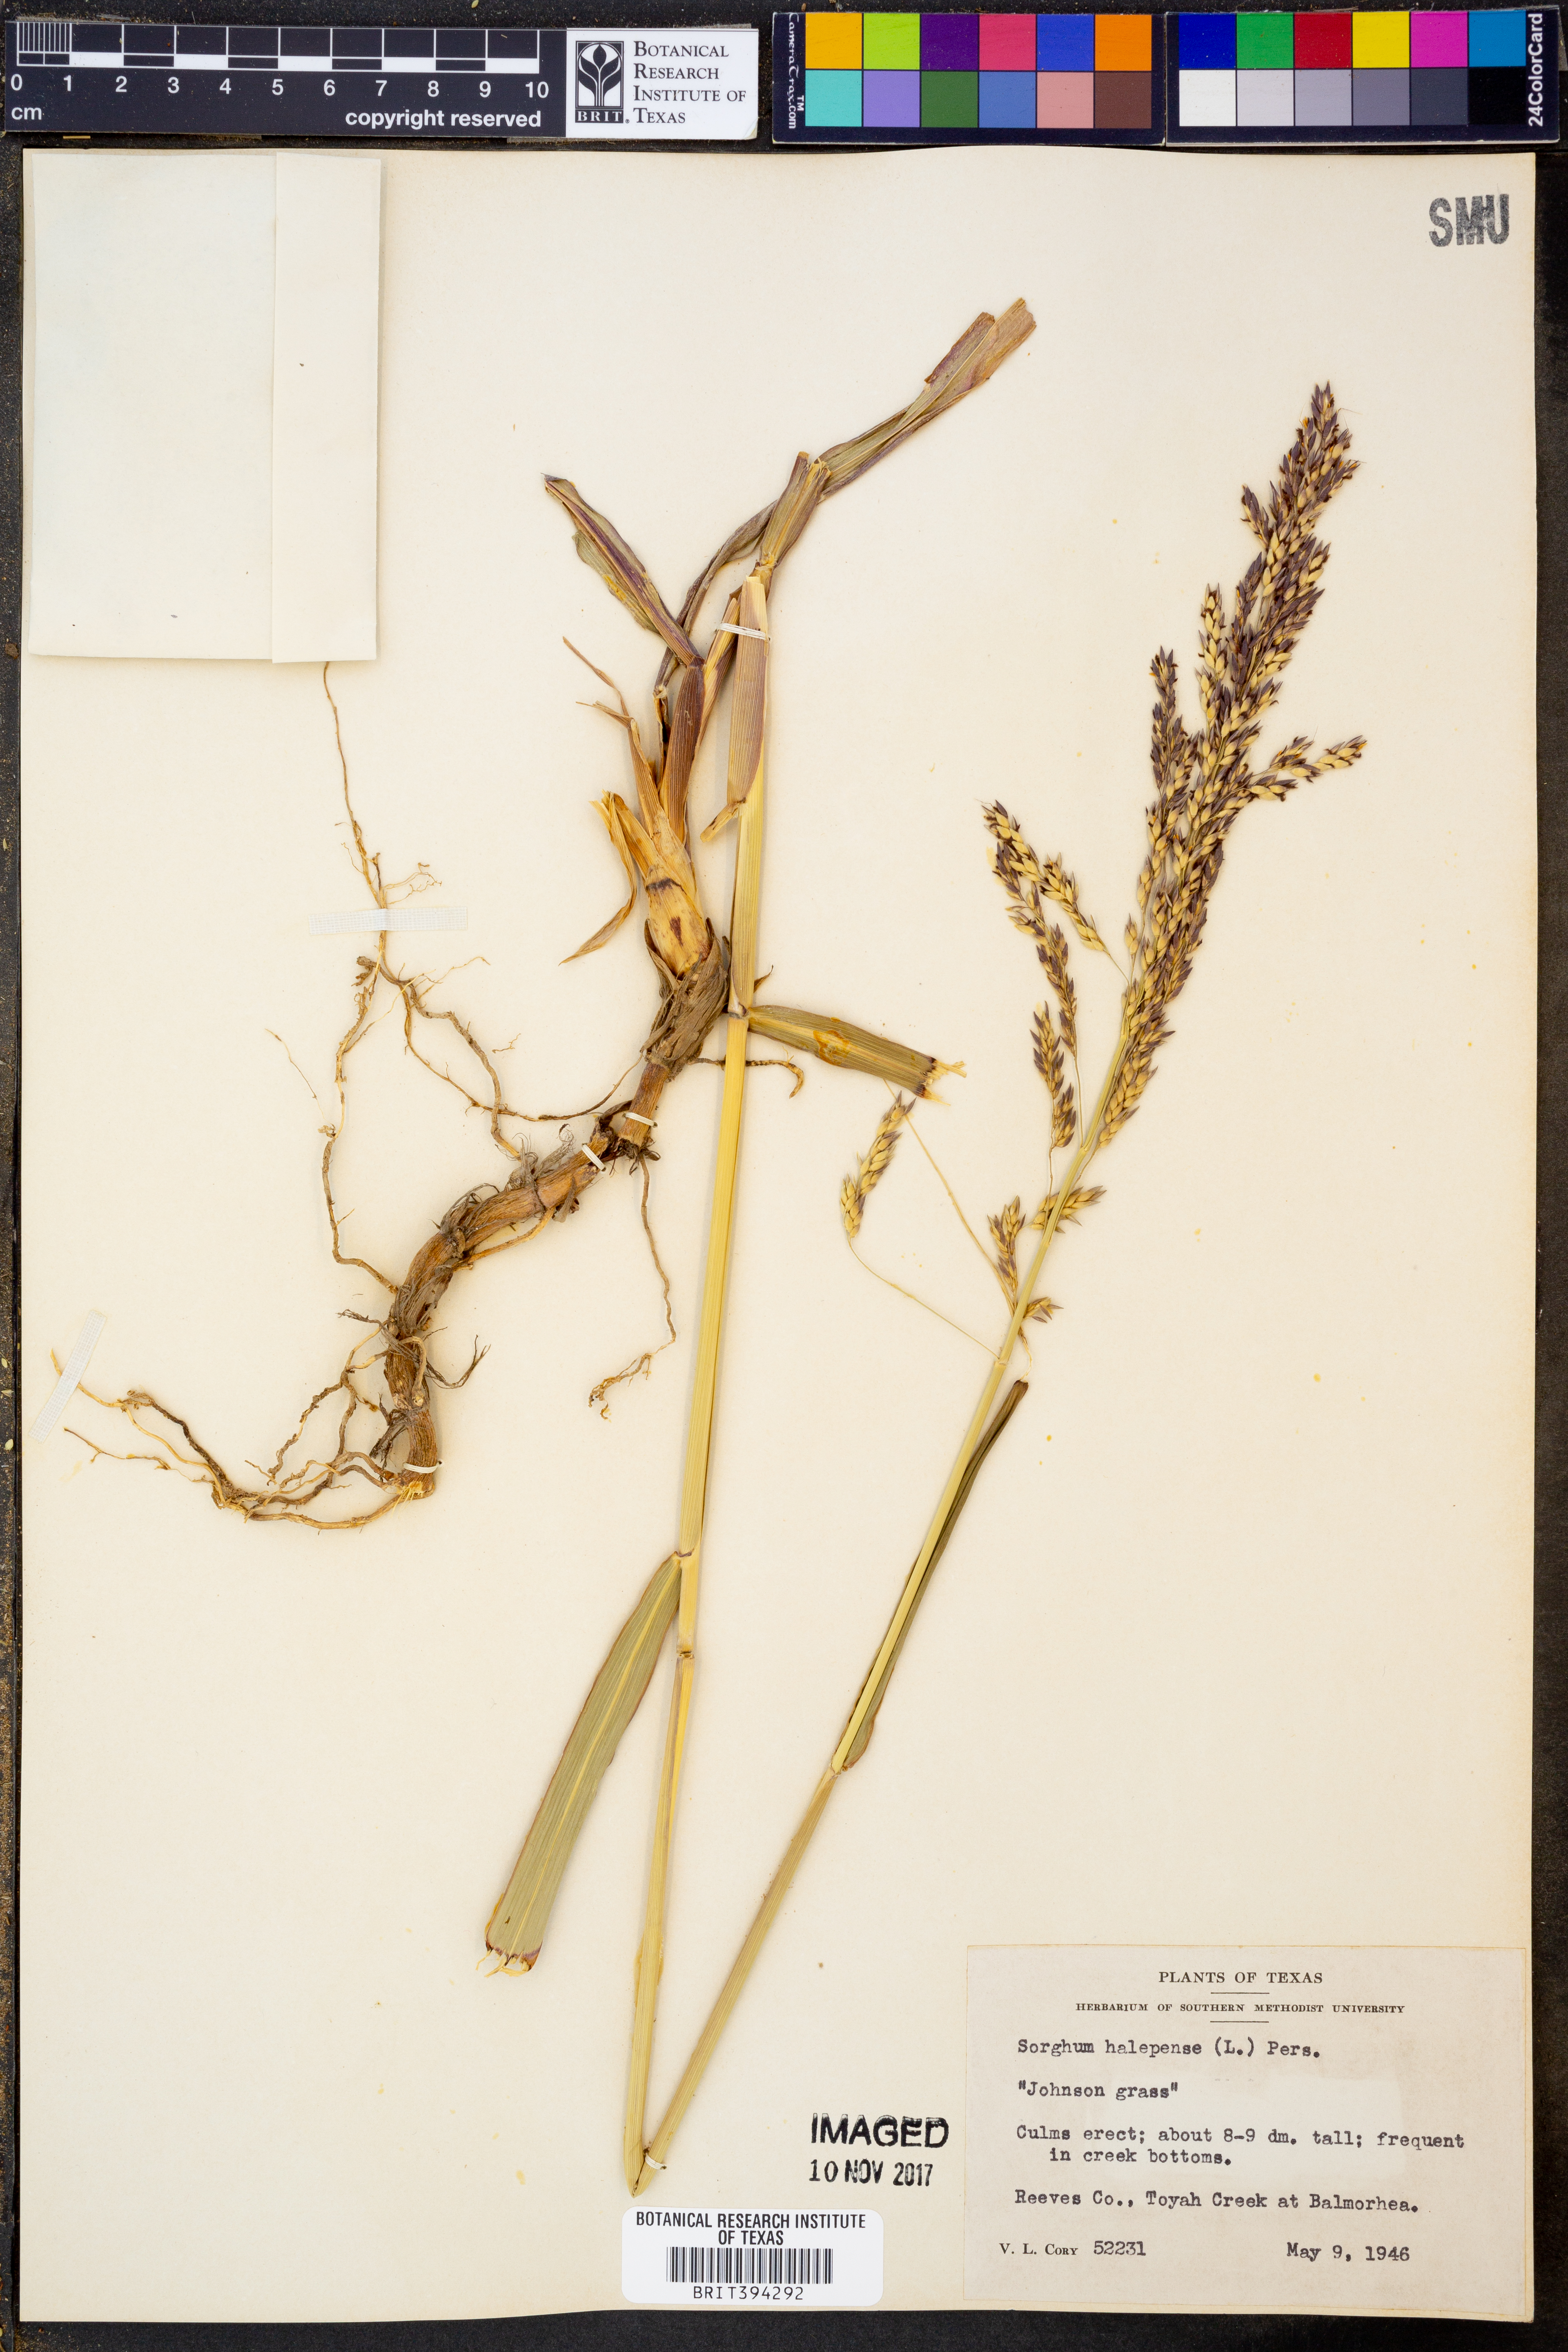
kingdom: Plantae
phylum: Tracheophyta
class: Liliopsida
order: Poales
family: Poaceae
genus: Sorghum
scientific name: Sorghum halepense
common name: Johnson-grass
